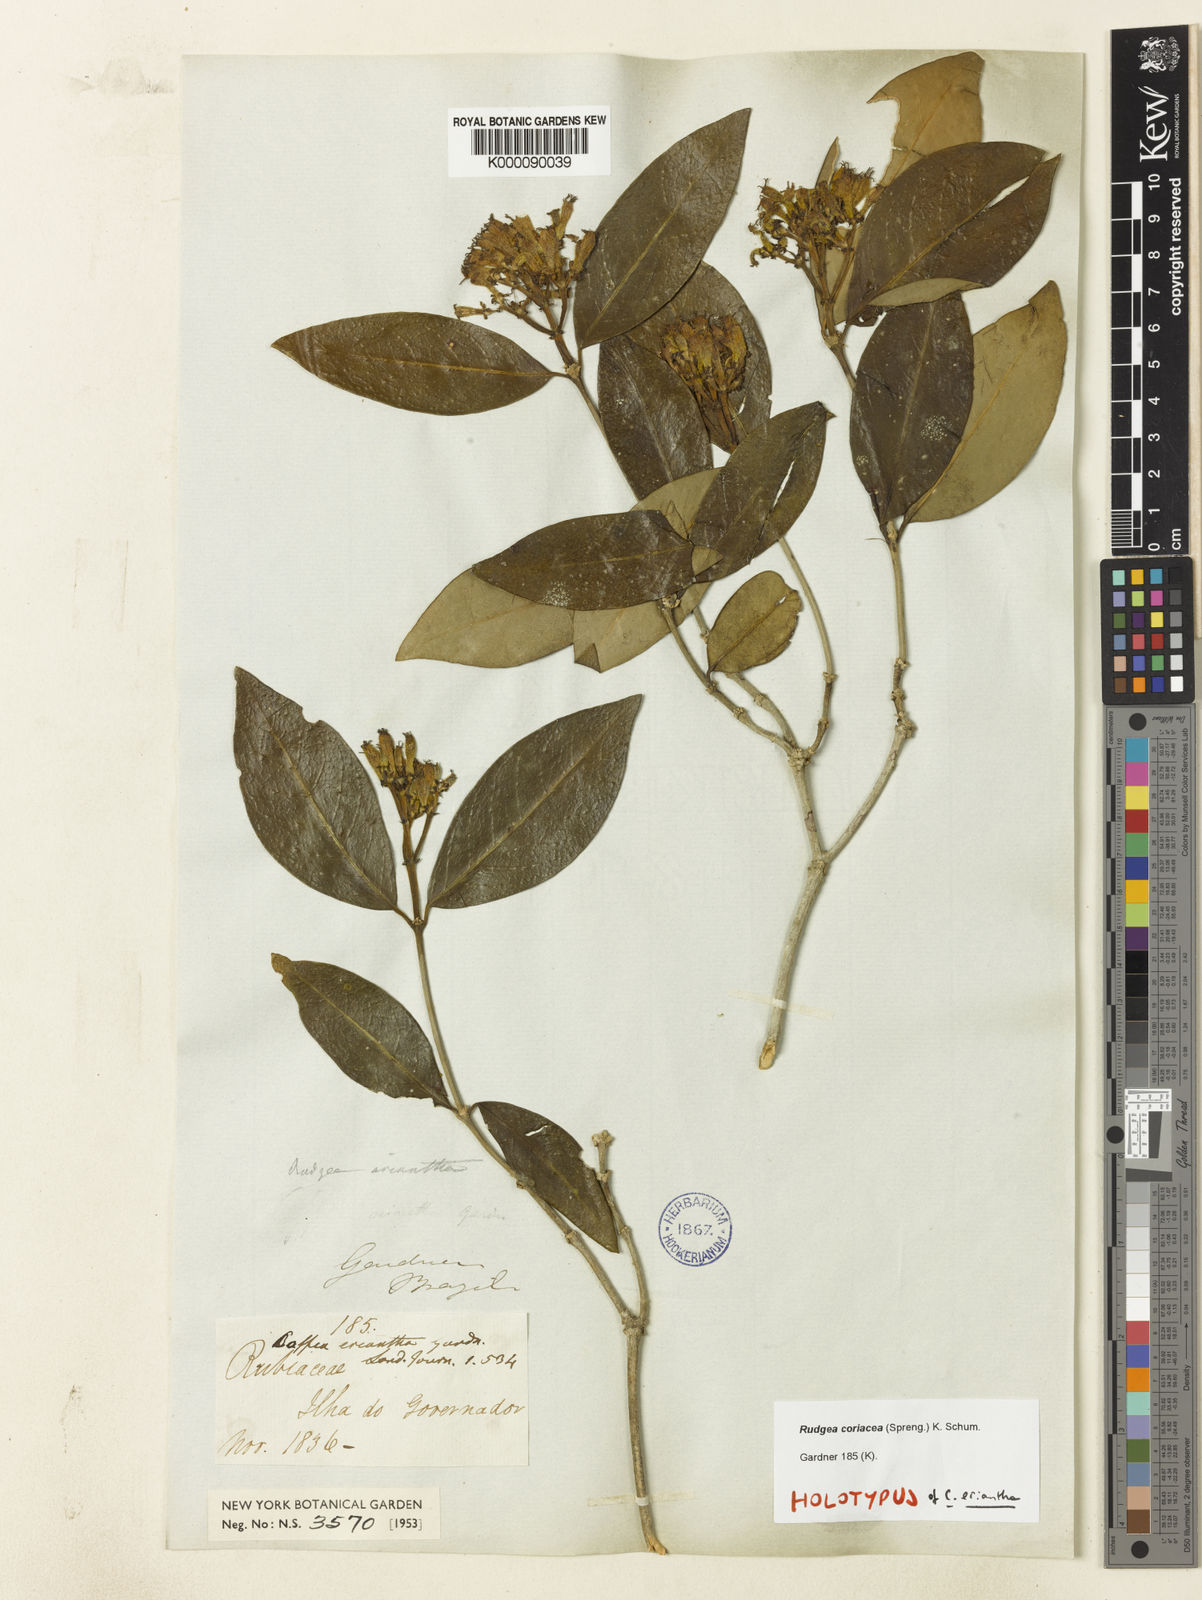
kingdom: Plantae
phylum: Tracheophyta
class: Magnoliopsida
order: Gentianales
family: Rubiaceae
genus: Rudgea
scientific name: Rudgea coriacea
